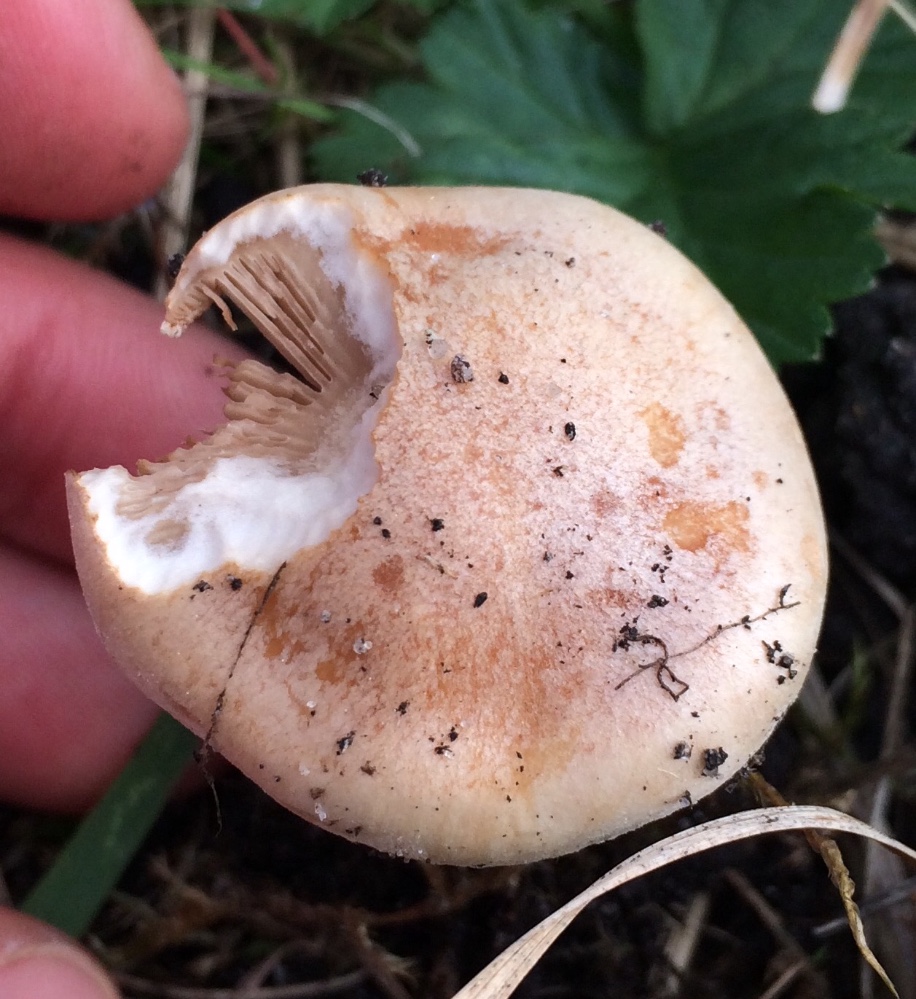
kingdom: Fungi
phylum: Basidiomycota
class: Agaricomycetes
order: Agaricales
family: Hymenogastraceae
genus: Hebeloma
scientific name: Hebeloma
